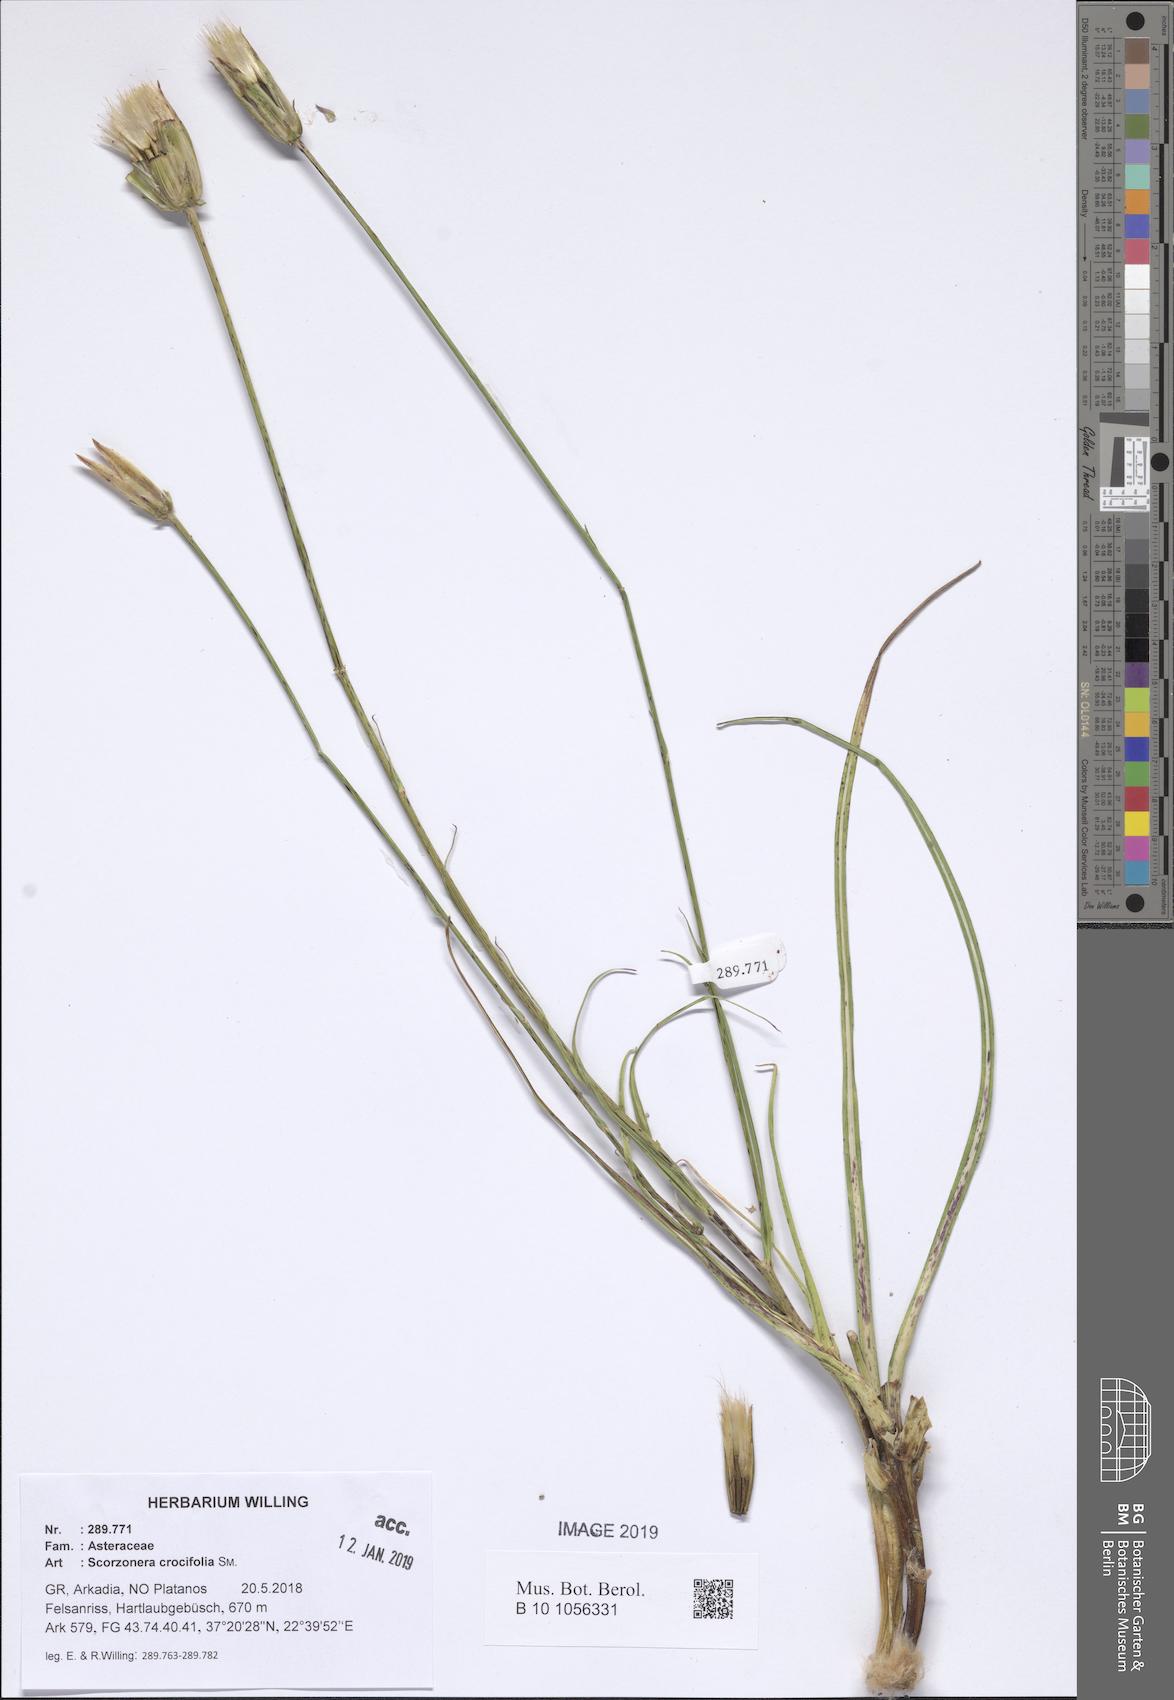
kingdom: Plantae
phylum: Tracheophyta
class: Magnoliopsida
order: Asterales
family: Asteraceae
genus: Pseudopodospermum
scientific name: Pseudopodospermum crocifolium
